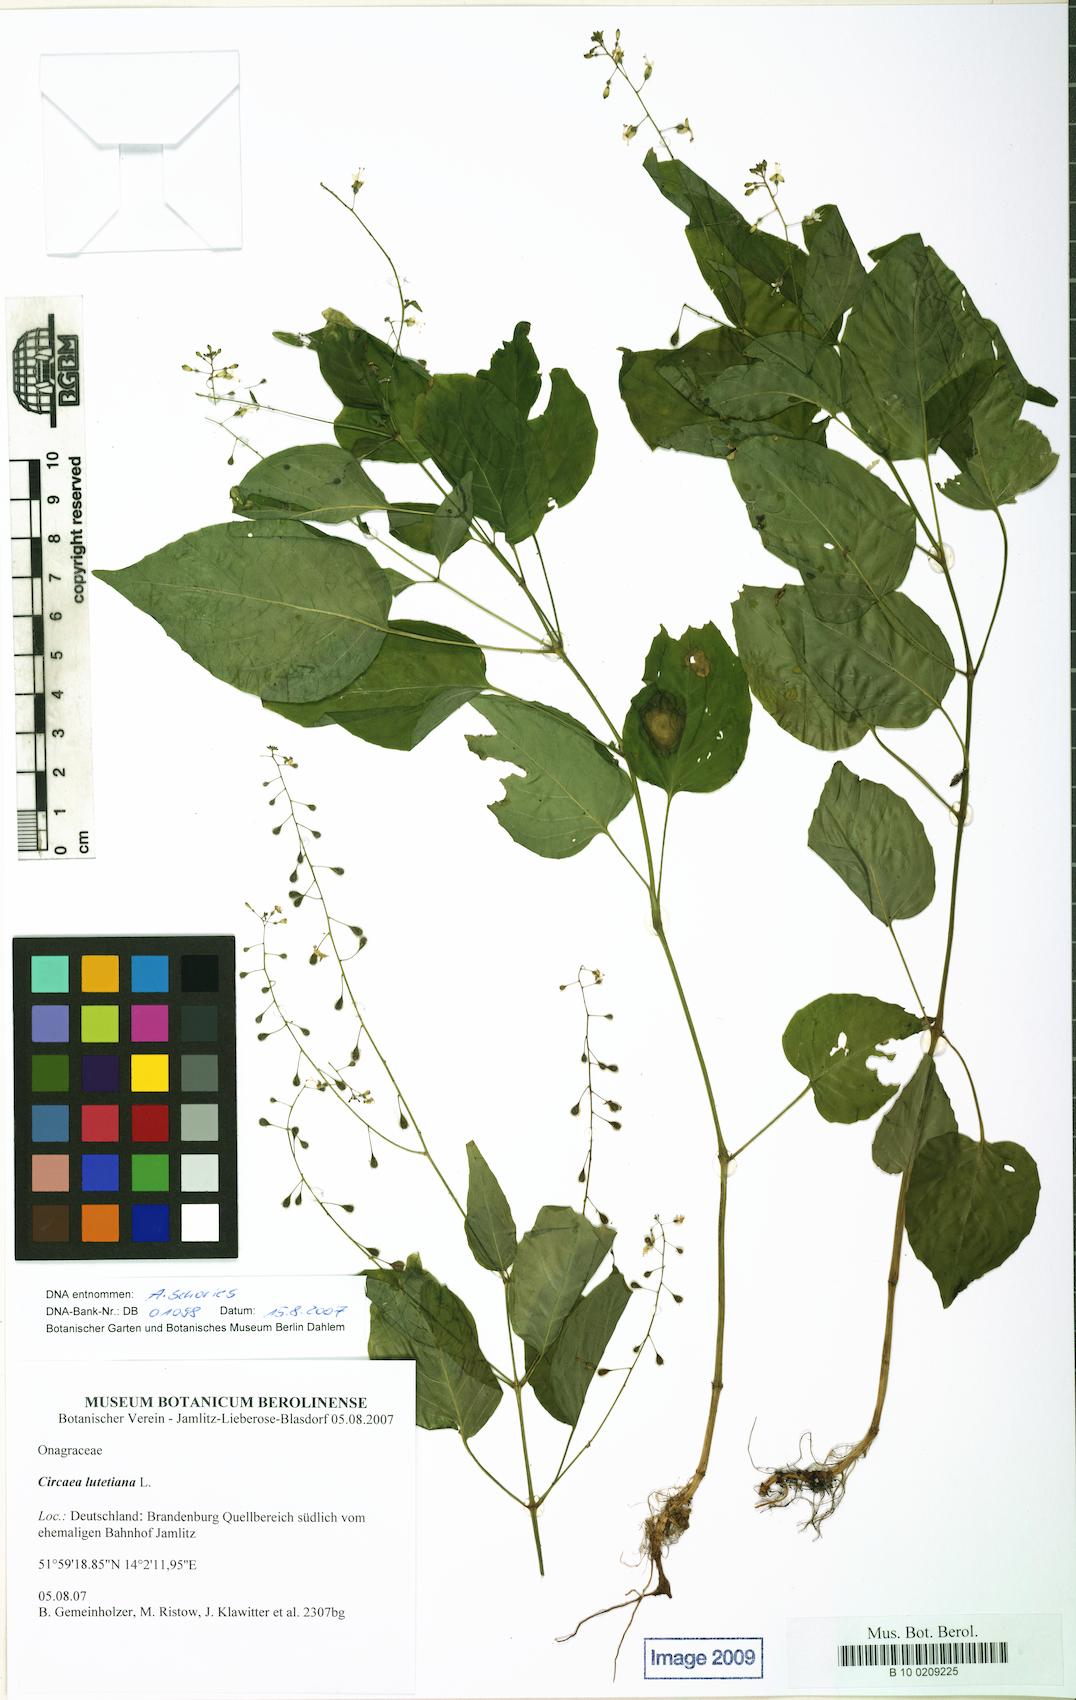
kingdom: Plantae
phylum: Tracheophyta
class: Magnoliopsida
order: Myrtales
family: Onagraceae
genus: Circaea
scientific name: Circaea lutetiana
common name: Enchanter's-nightshade
